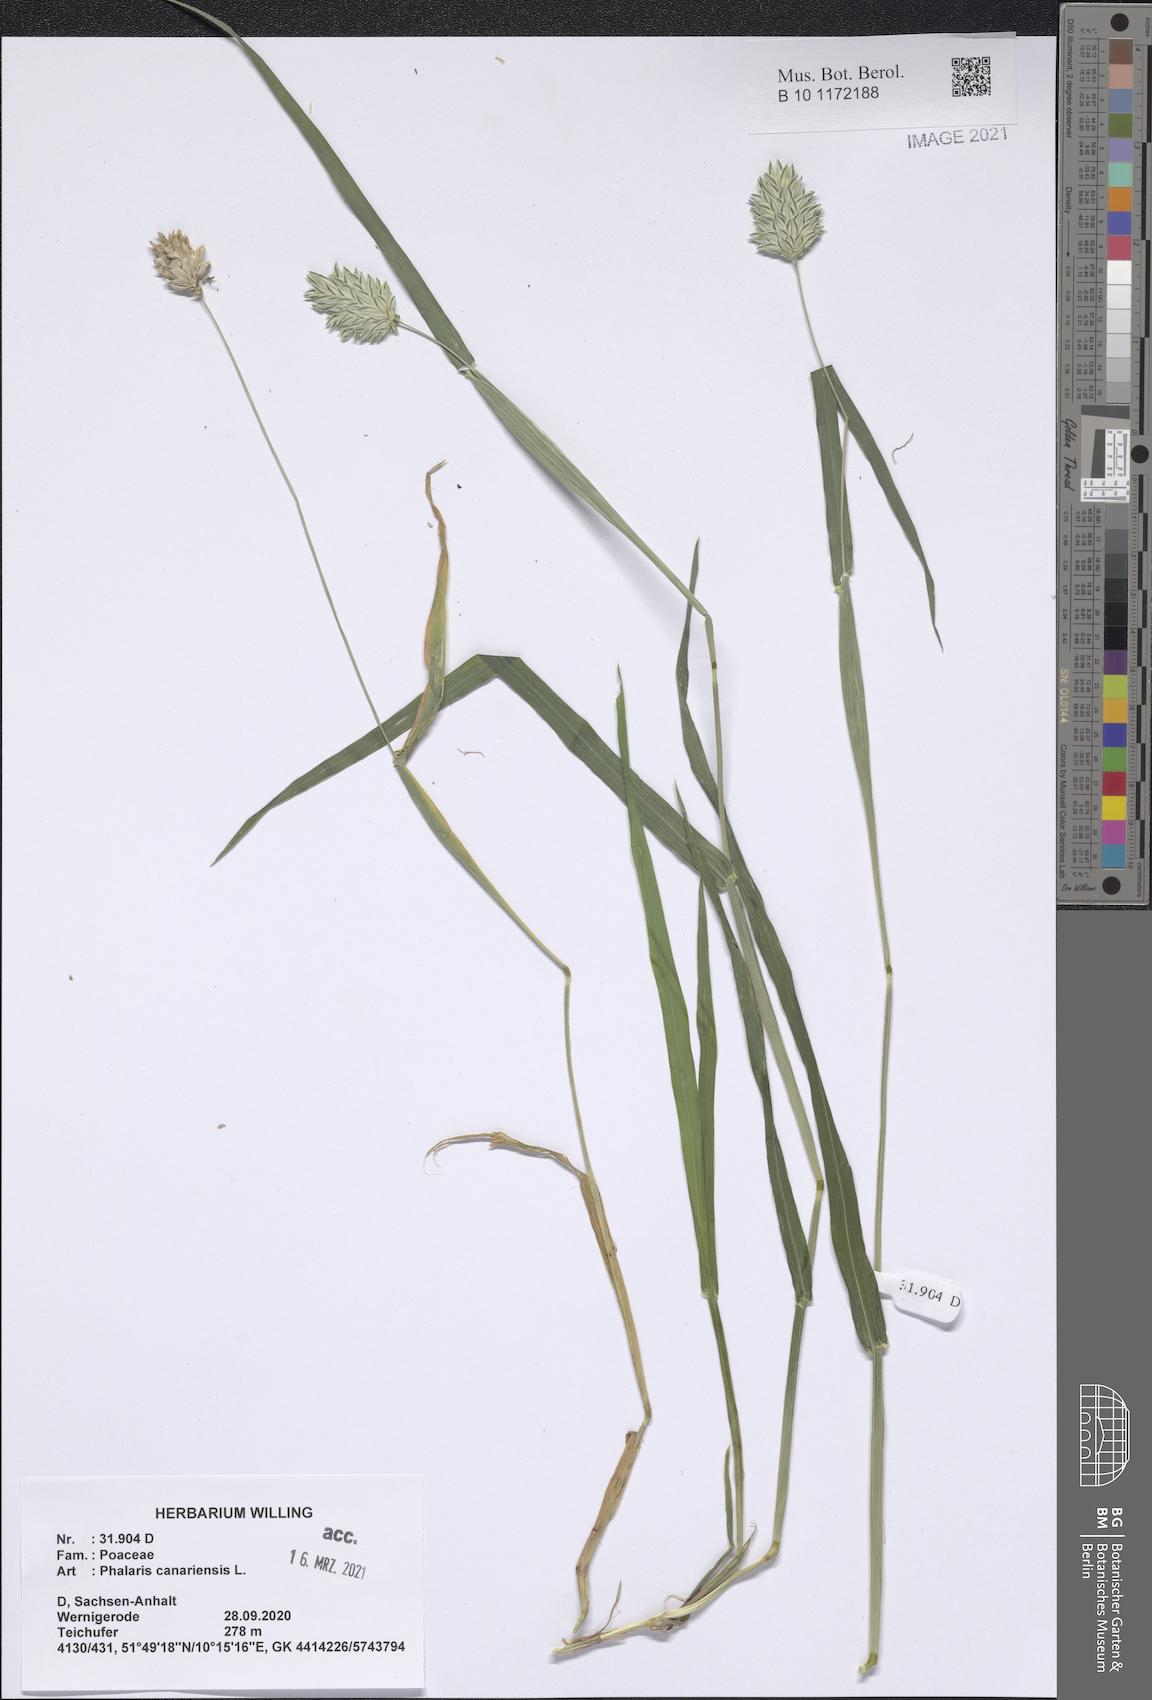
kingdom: Plantae
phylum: Tracheophyta
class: Liliopsida
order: Poales
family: Poaceae
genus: Phalaris
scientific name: Phalaris canariensis
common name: Annual canarygrass
